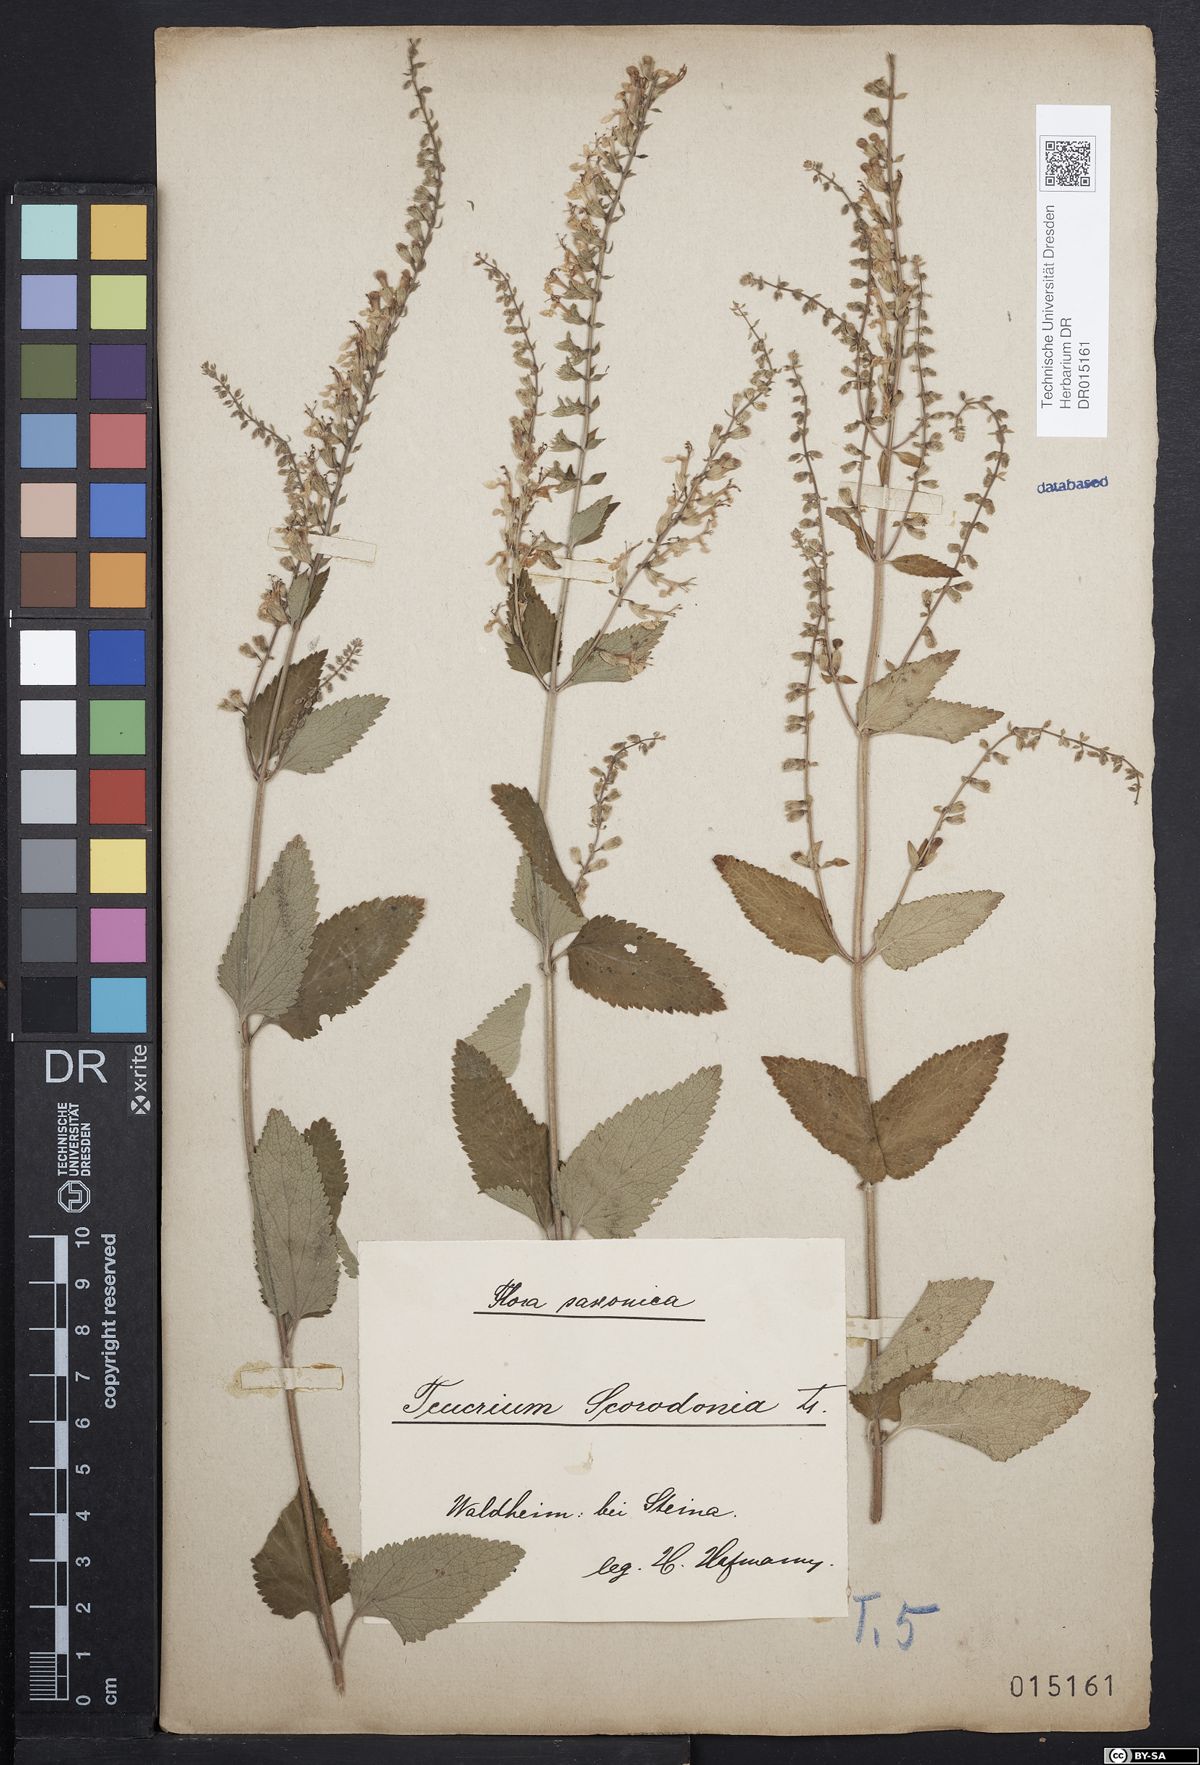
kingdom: Plantae
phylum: Tracheophyta
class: Magnoliopsida
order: Lamiales
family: Lamiaceae
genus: Teucrium
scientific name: Teucrium scorodonia
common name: Woodland germander
